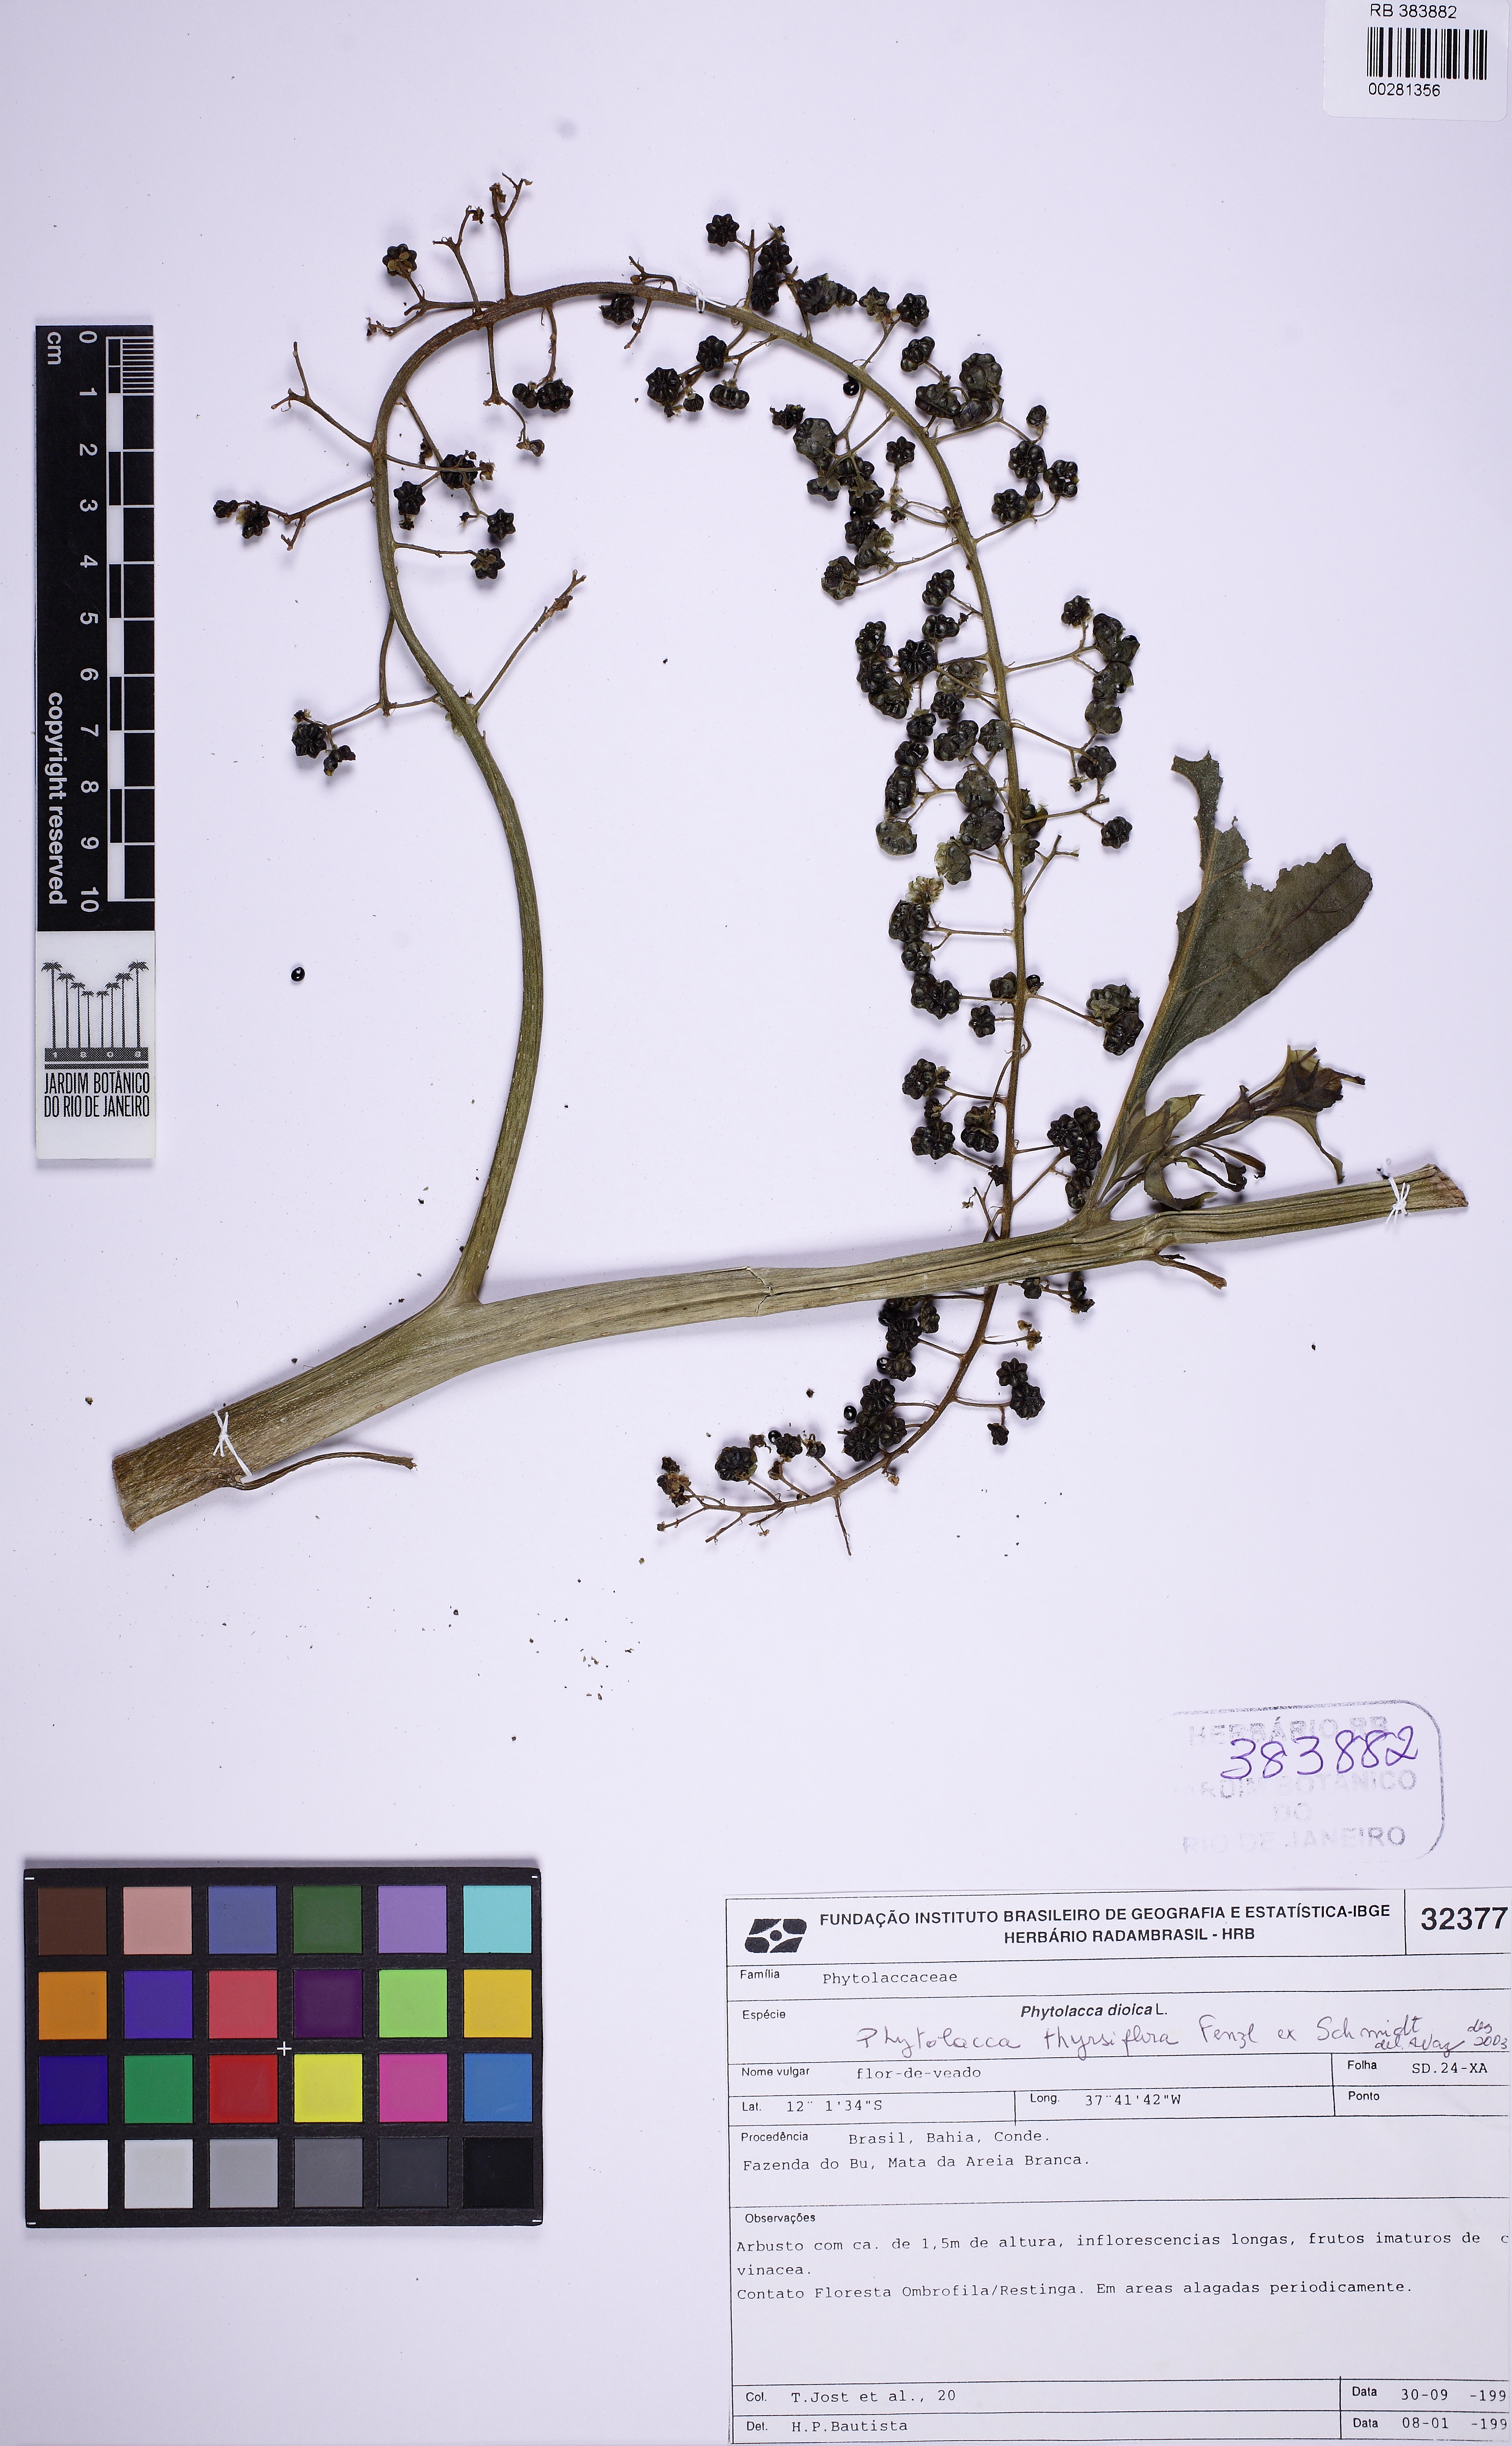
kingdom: Plantae
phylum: Tracheophyta
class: Magnoliopsida
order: Caryophyllales
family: Phytolaccaceae
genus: Phytolacca
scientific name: Phytolacca thyrsiflora
